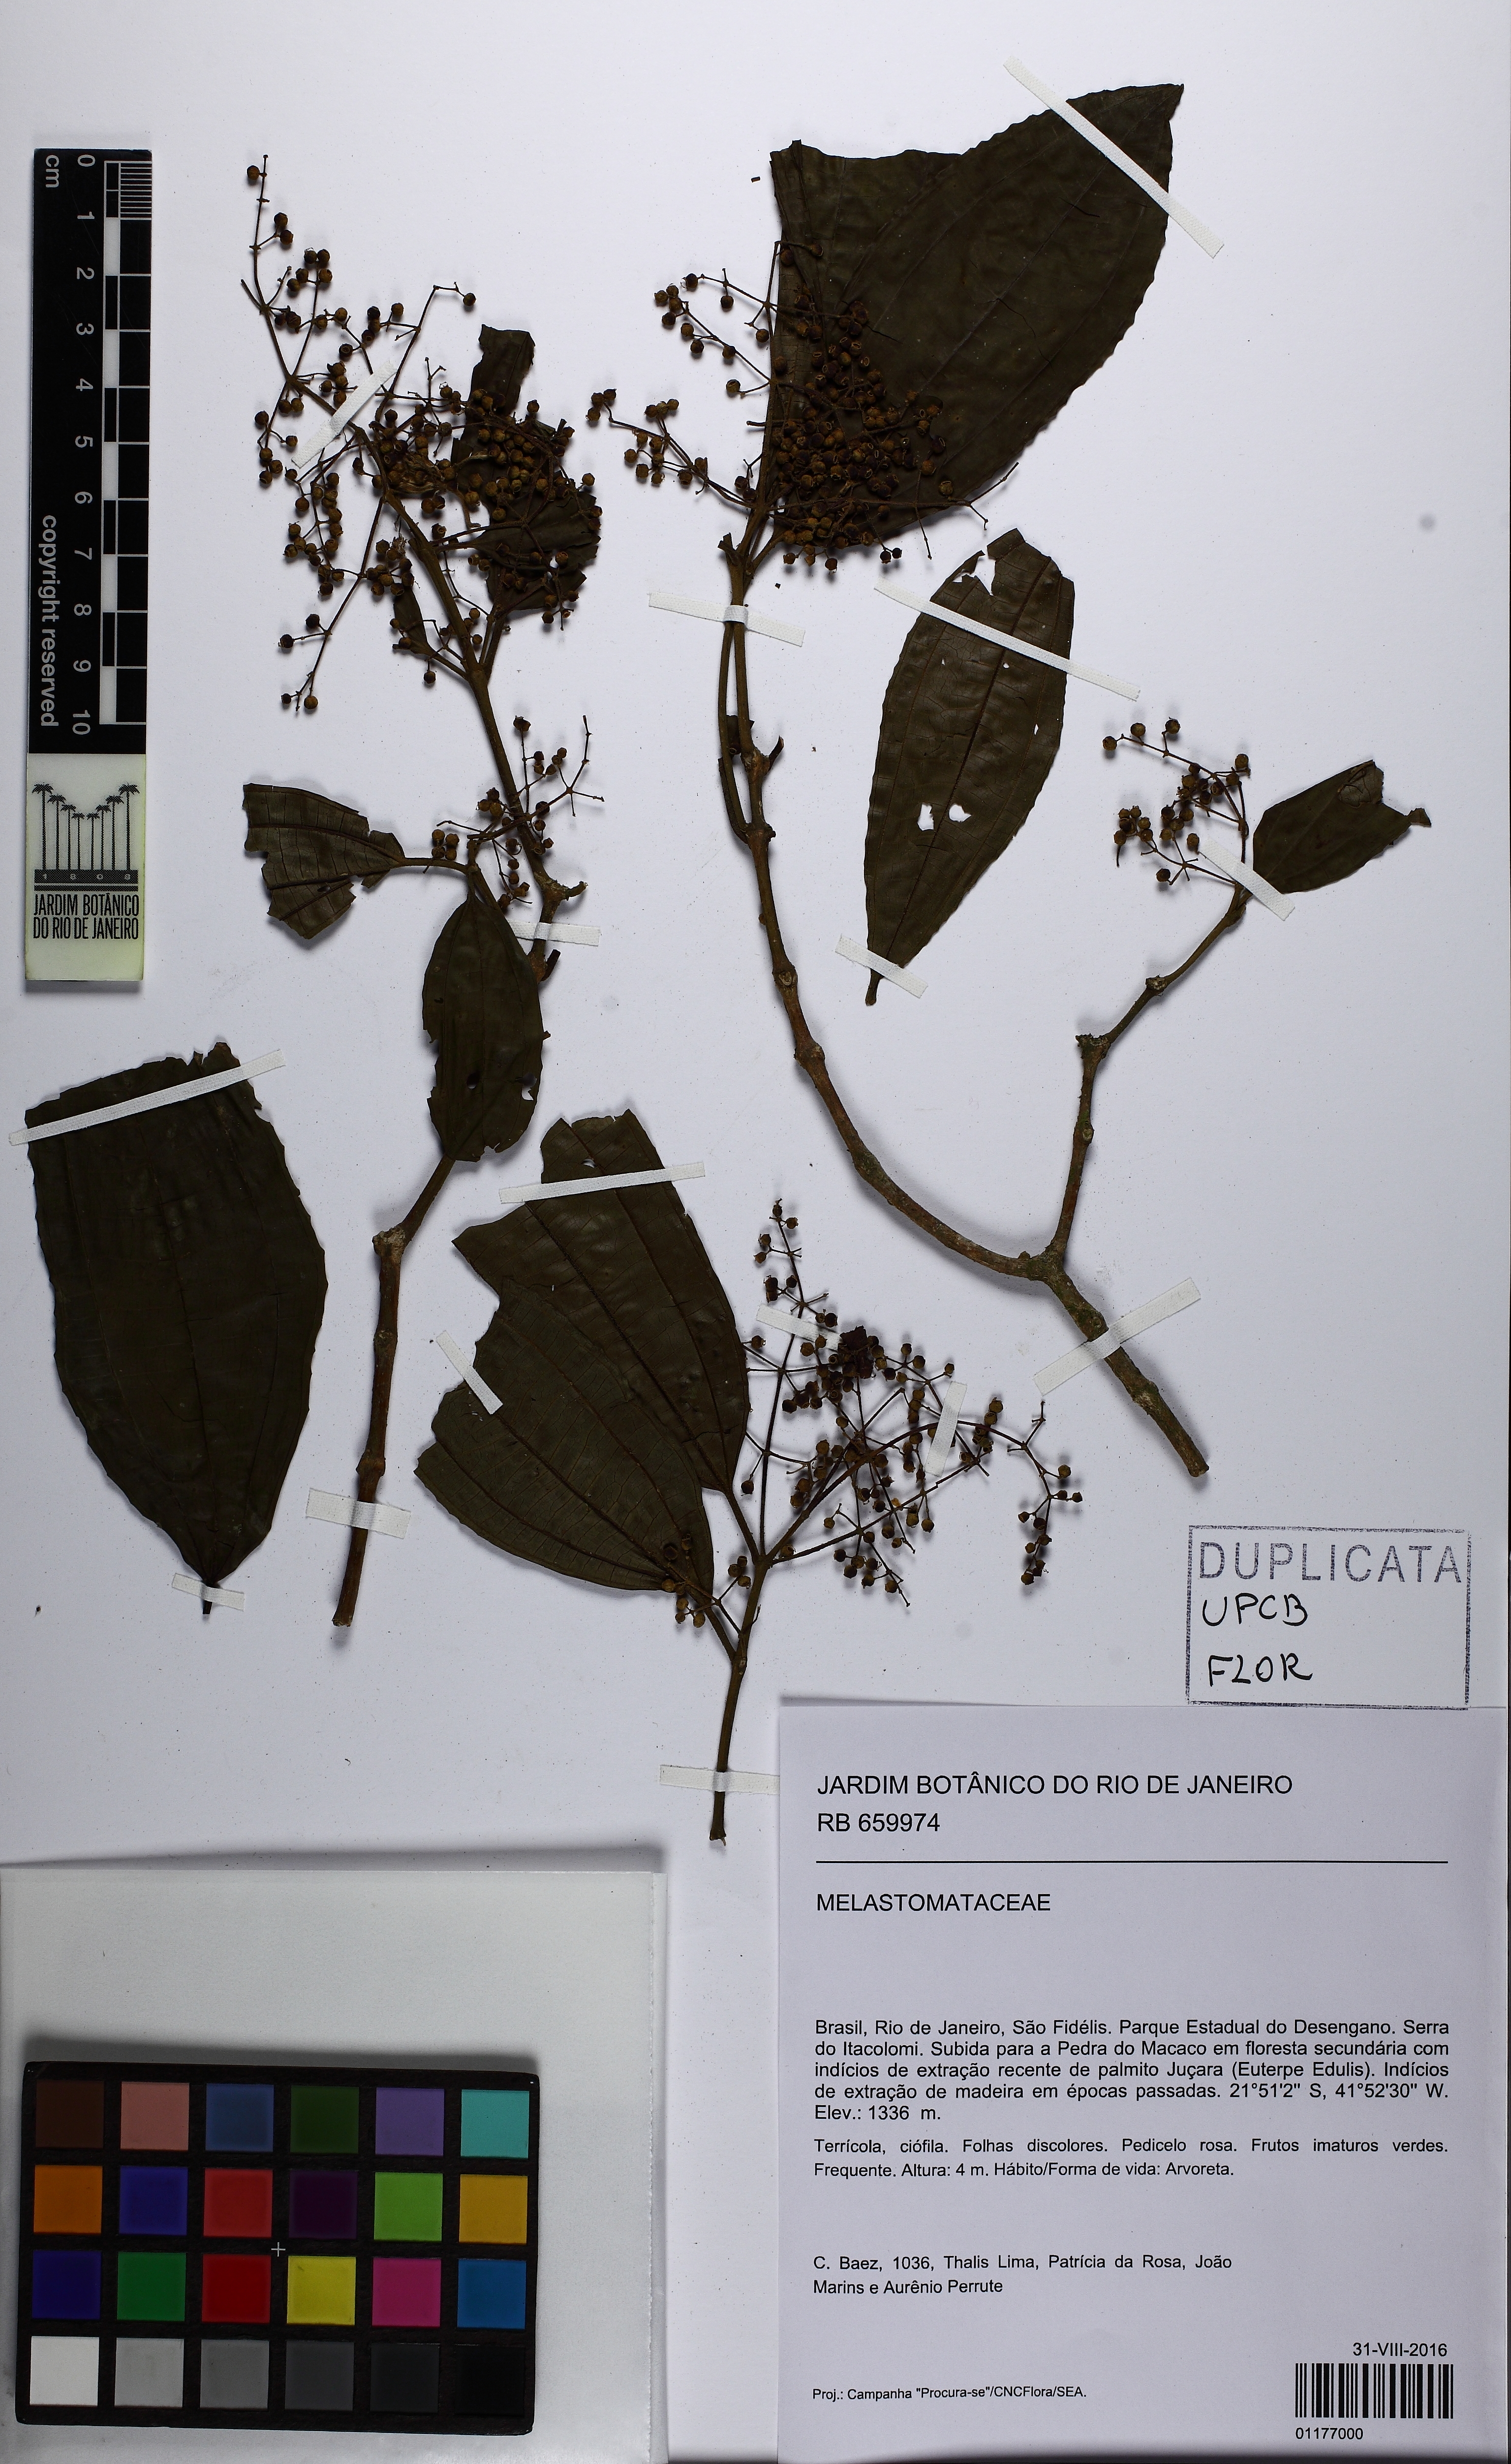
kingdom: Plantae
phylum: Tracheophyta
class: Magnoliopsida
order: Myrtales
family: Melastomataceae
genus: Miconia
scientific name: Miconia latecrenata
